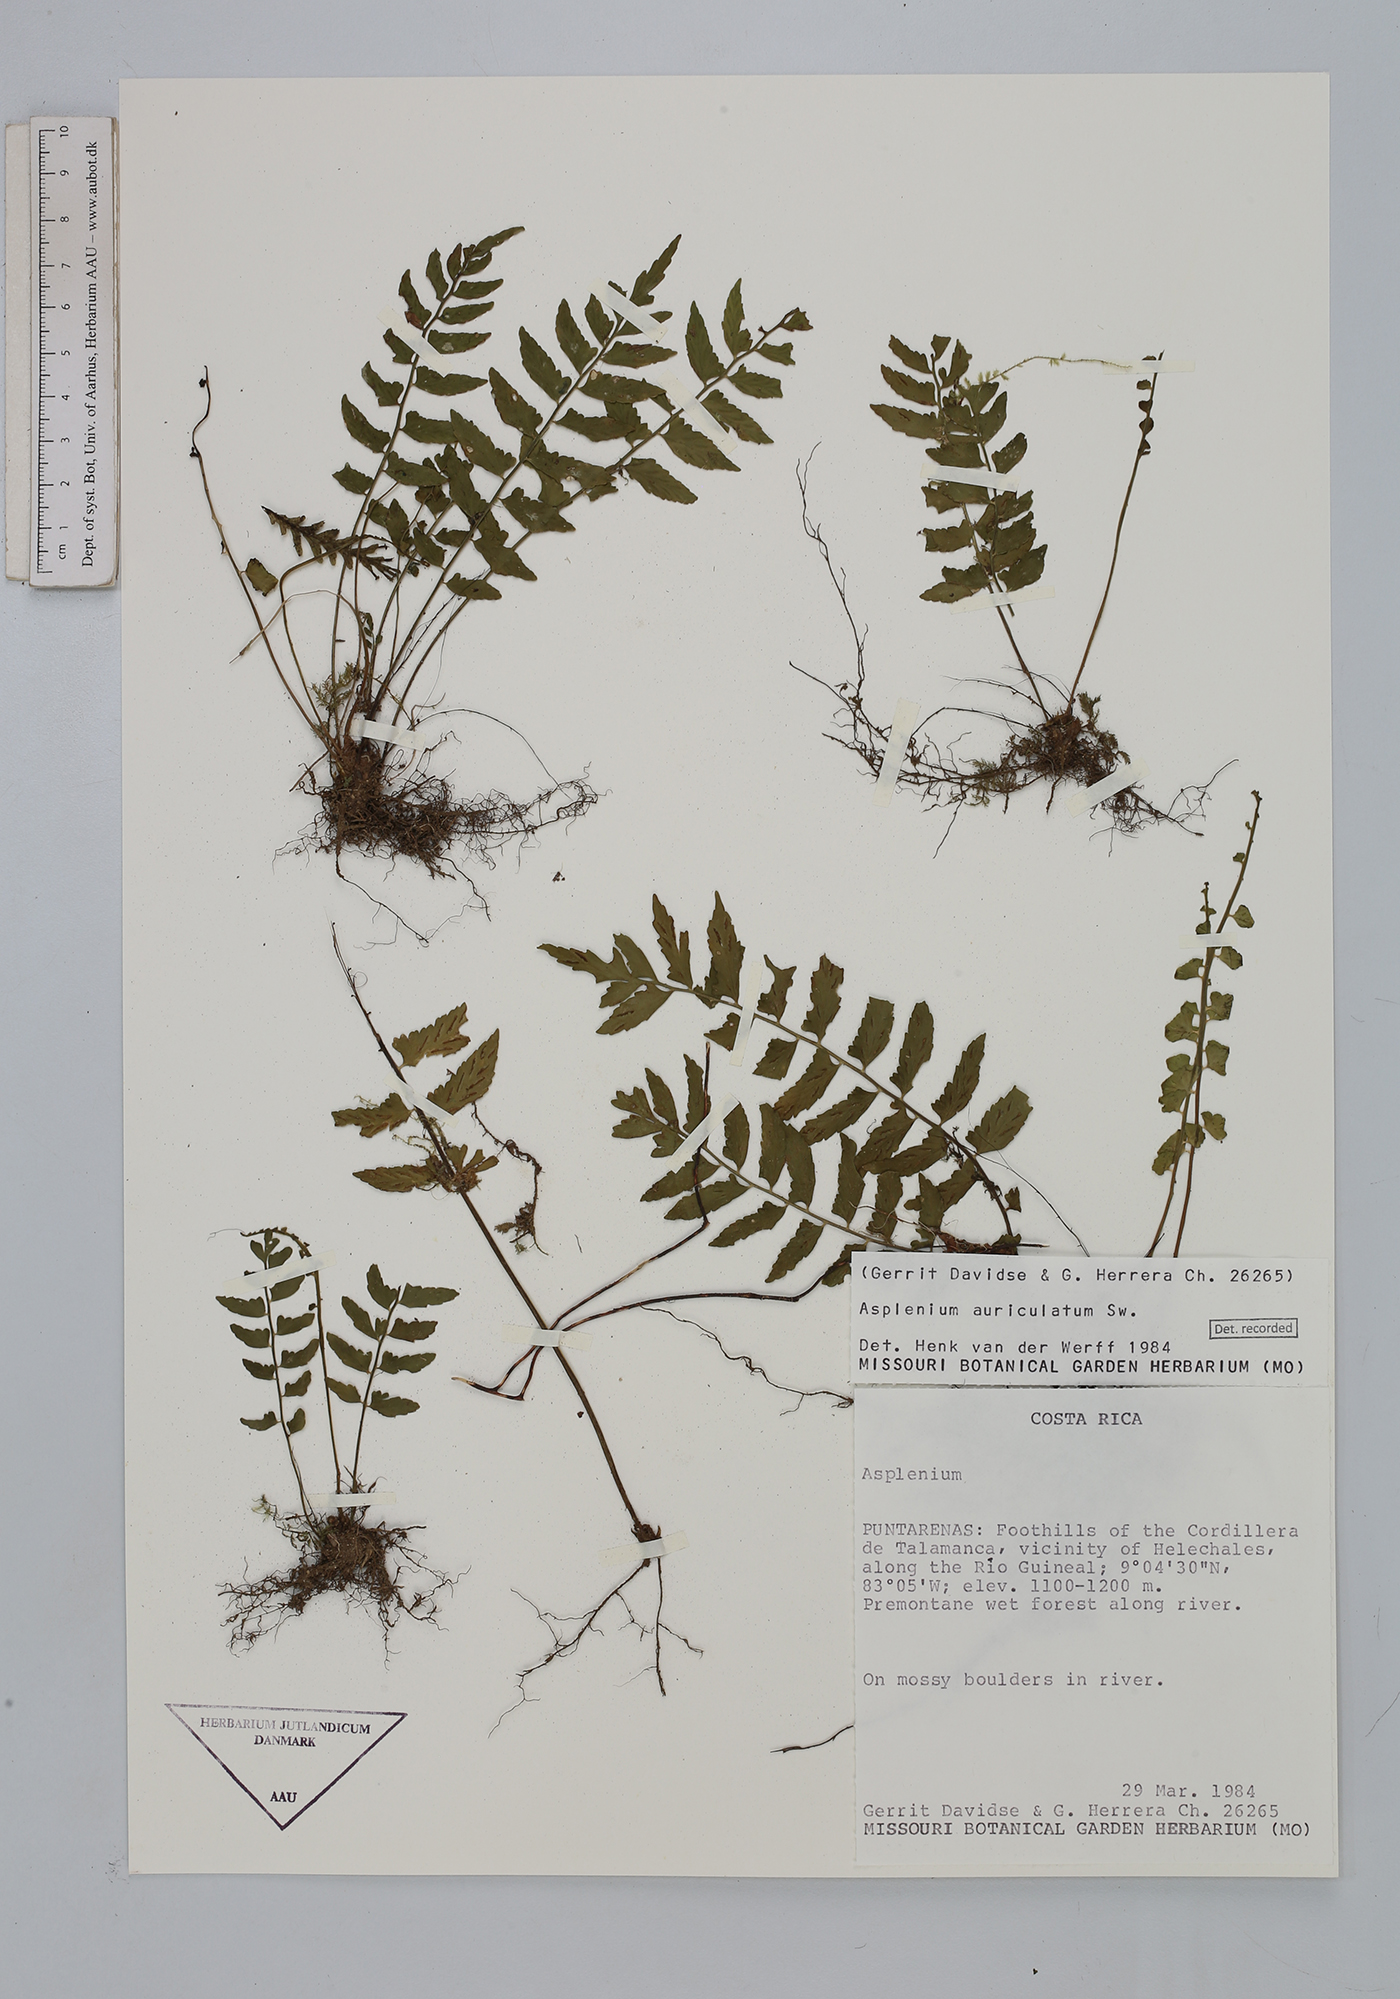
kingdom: Plantae
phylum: Tracheophyta
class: Polypodiopsida
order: Polypodiales
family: Aspleniaceae
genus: Asplenium
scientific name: Asplenium auriculatum
